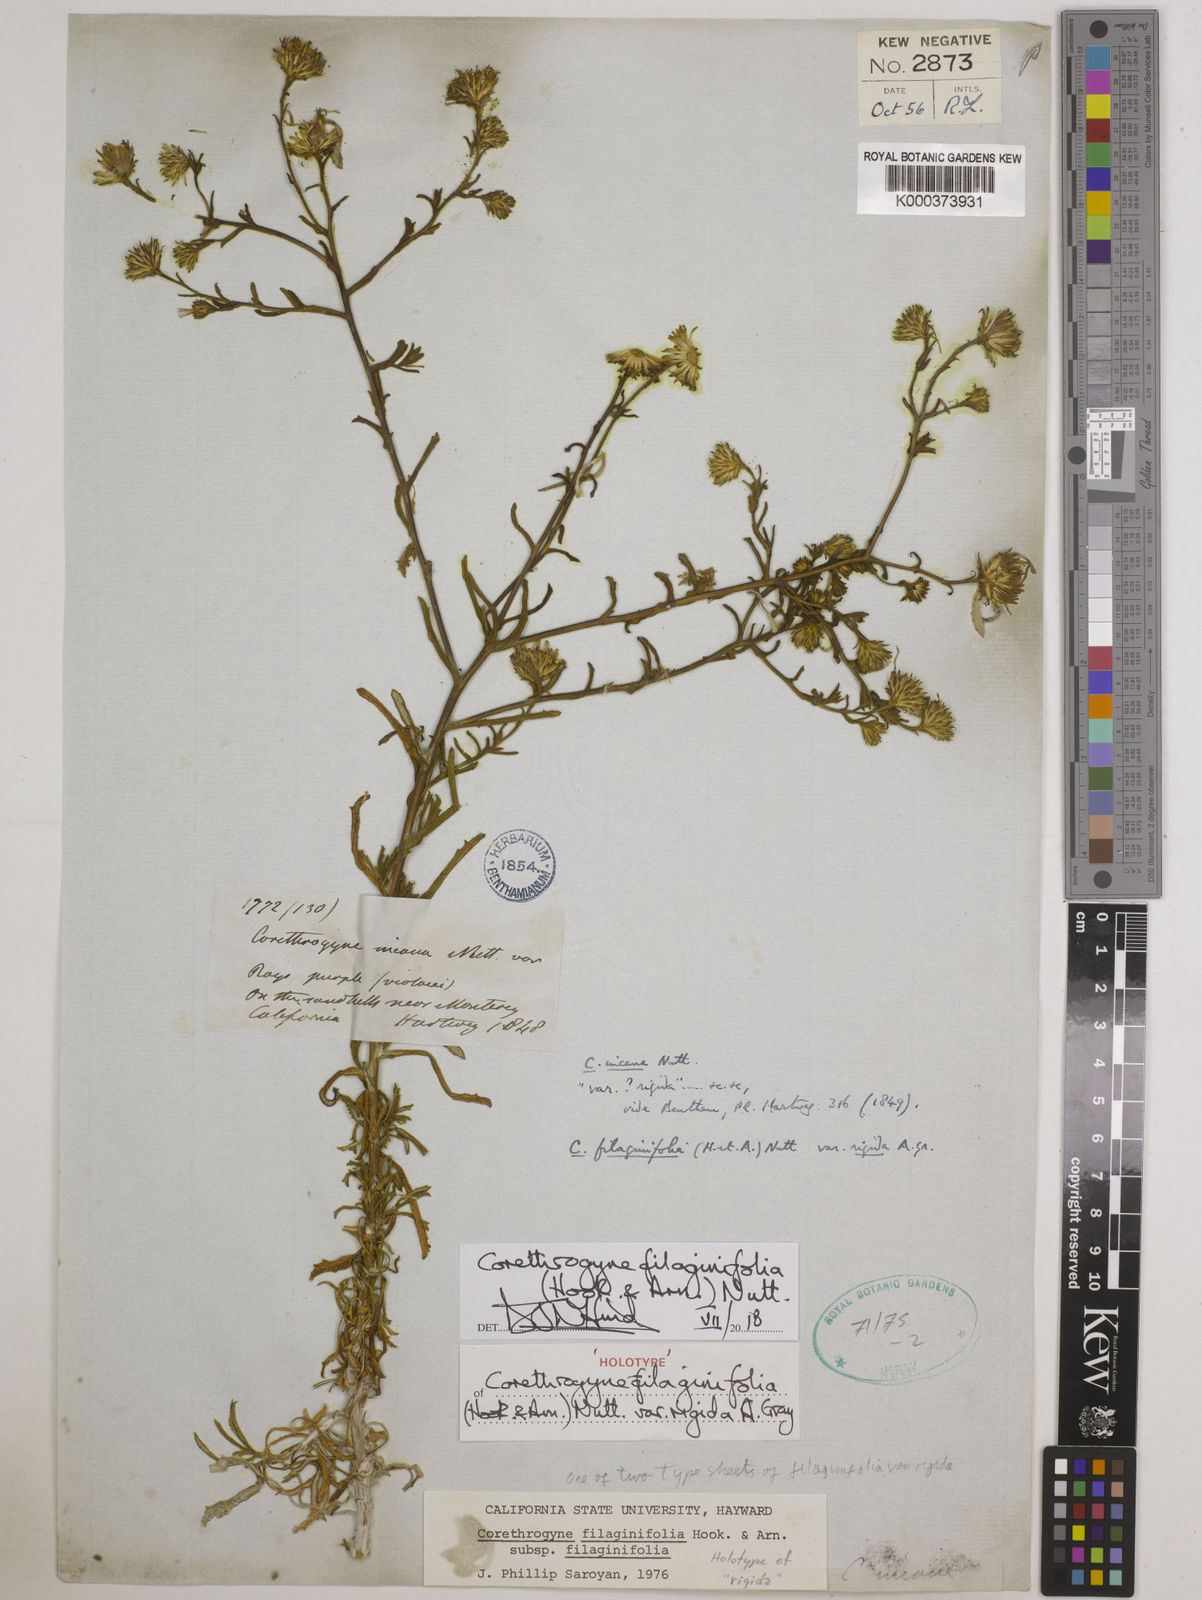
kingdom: Plantae
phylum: Tracheophyta
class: Magnoliopsida
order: Asterales
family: Asteraceae
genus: Corethrogyne
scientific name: Corethrogyne filaginifolia
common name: Sand-aster
